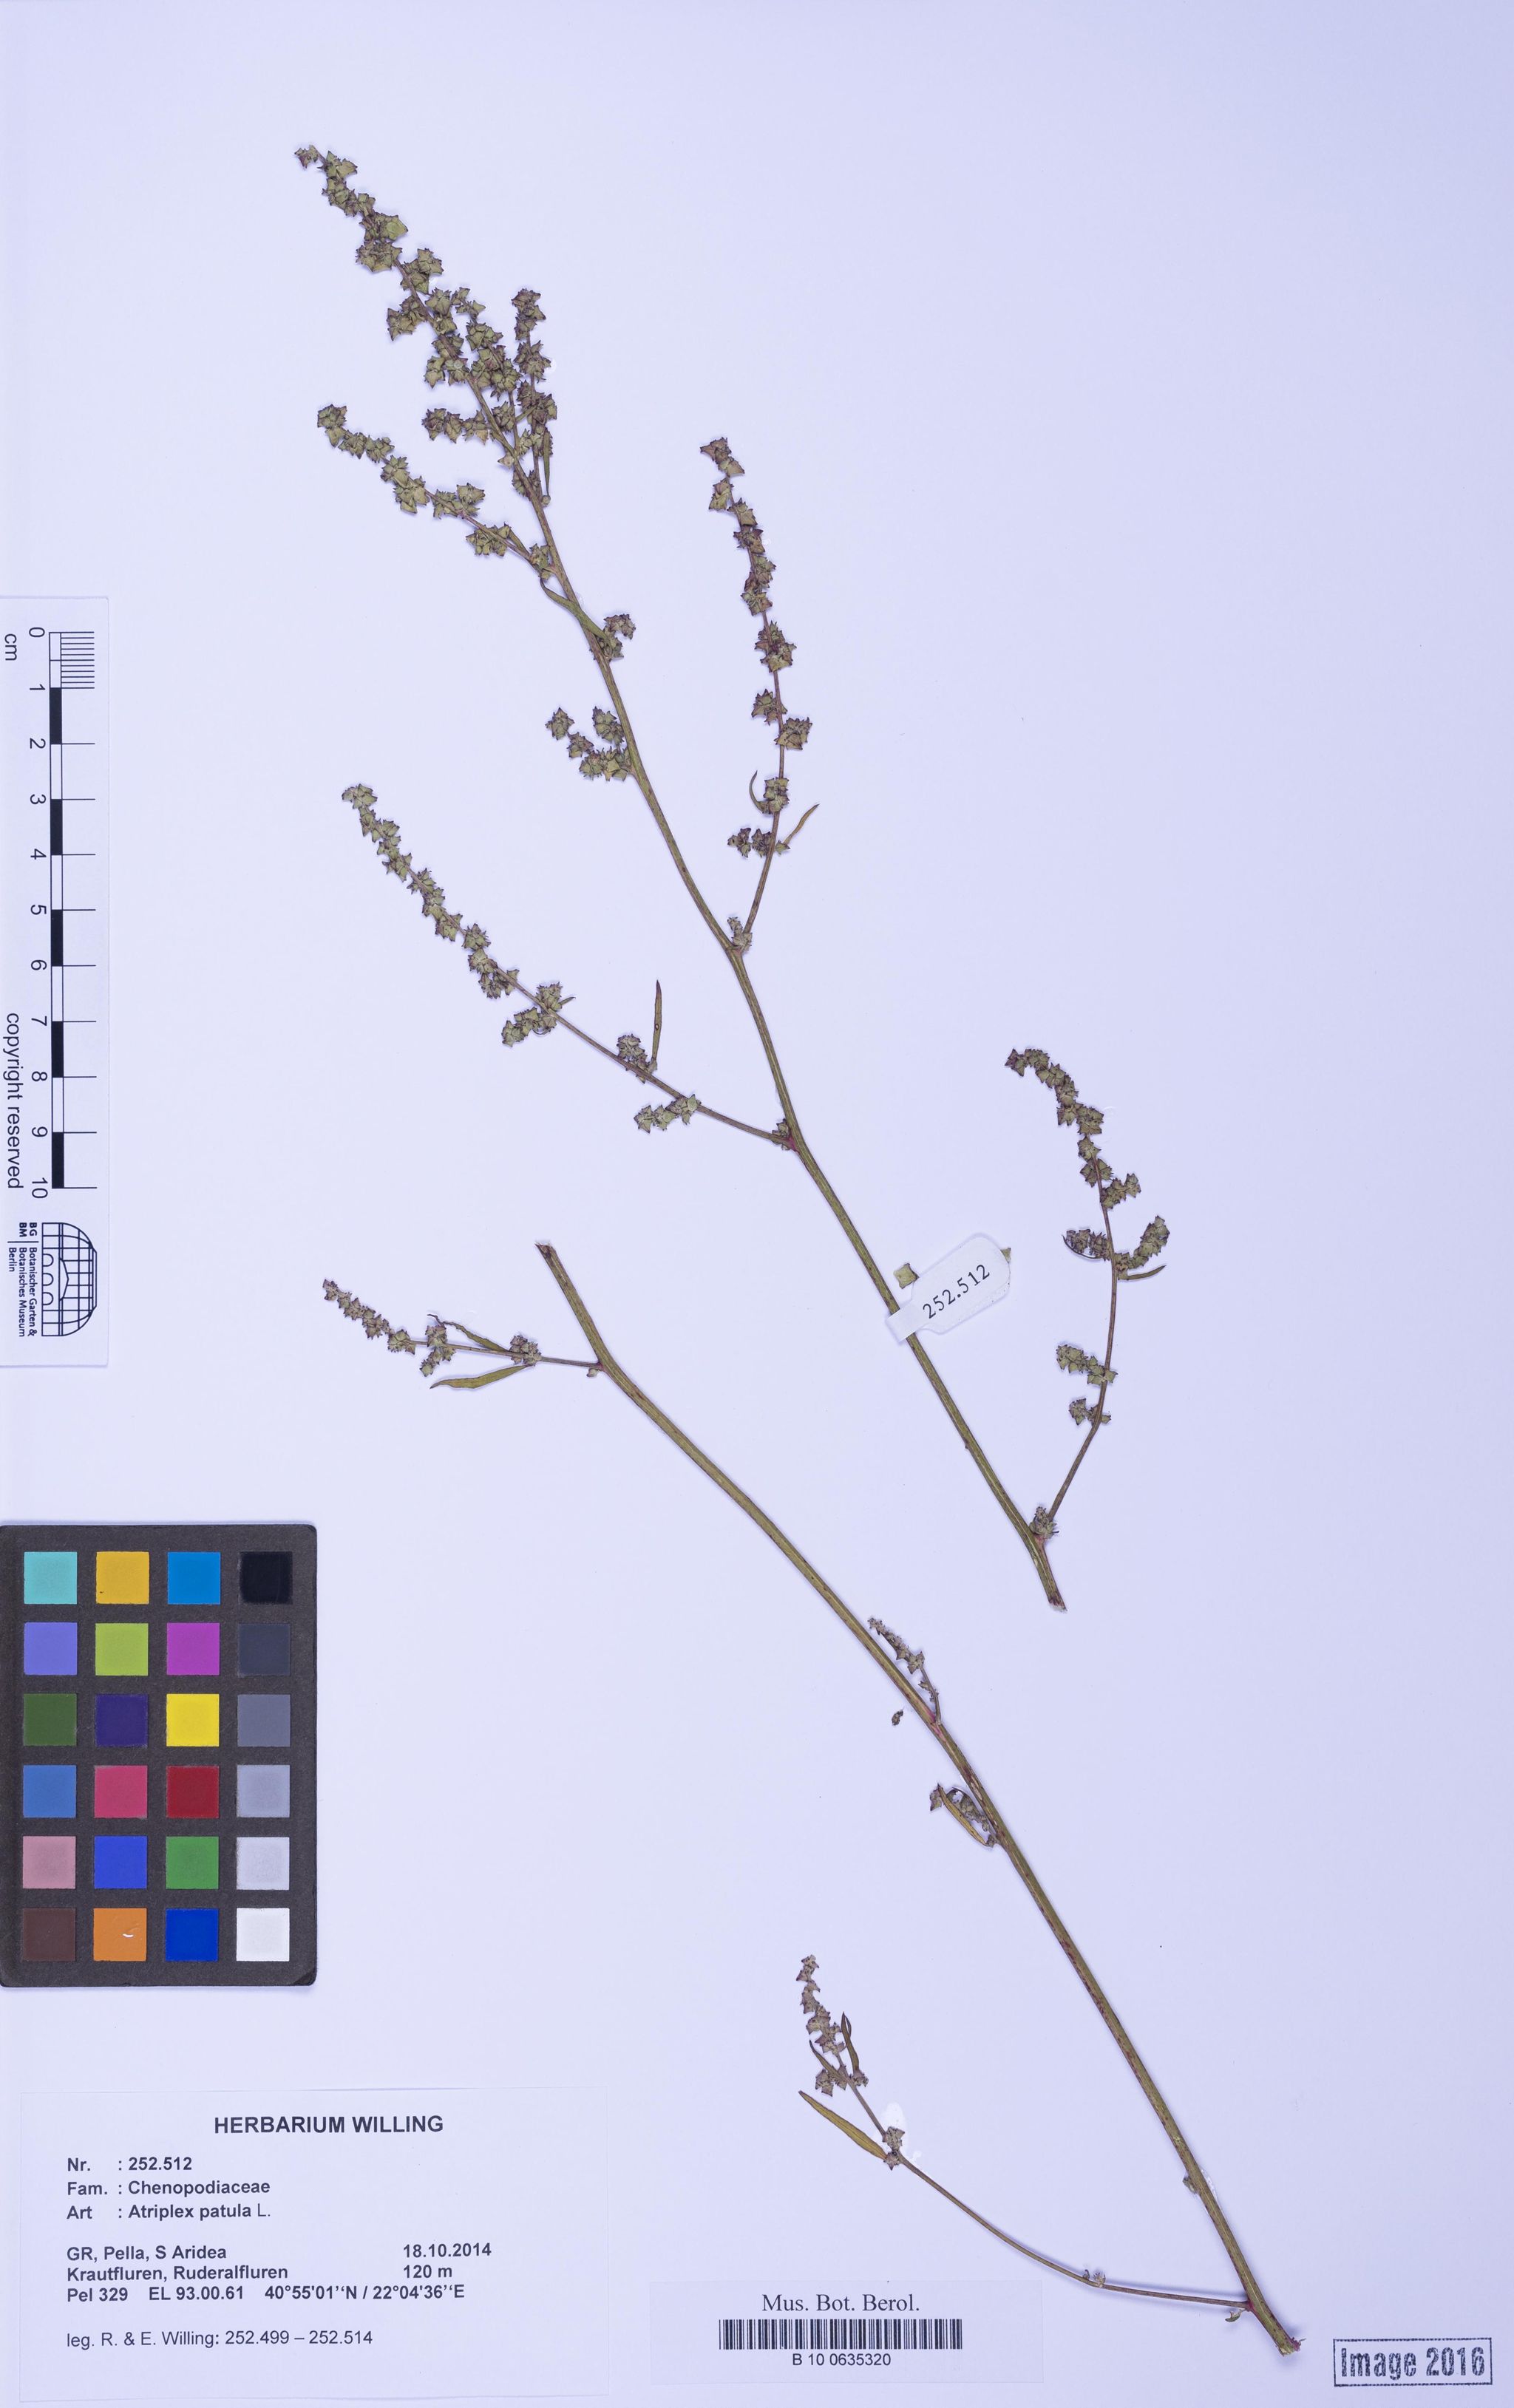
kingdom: Plantae
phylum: Tracheophyta
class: Magnoliopsida
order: Caryophyllales
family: Amaranthaceae
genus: Atriplex
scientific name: Atriplex patula
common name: Common orache
